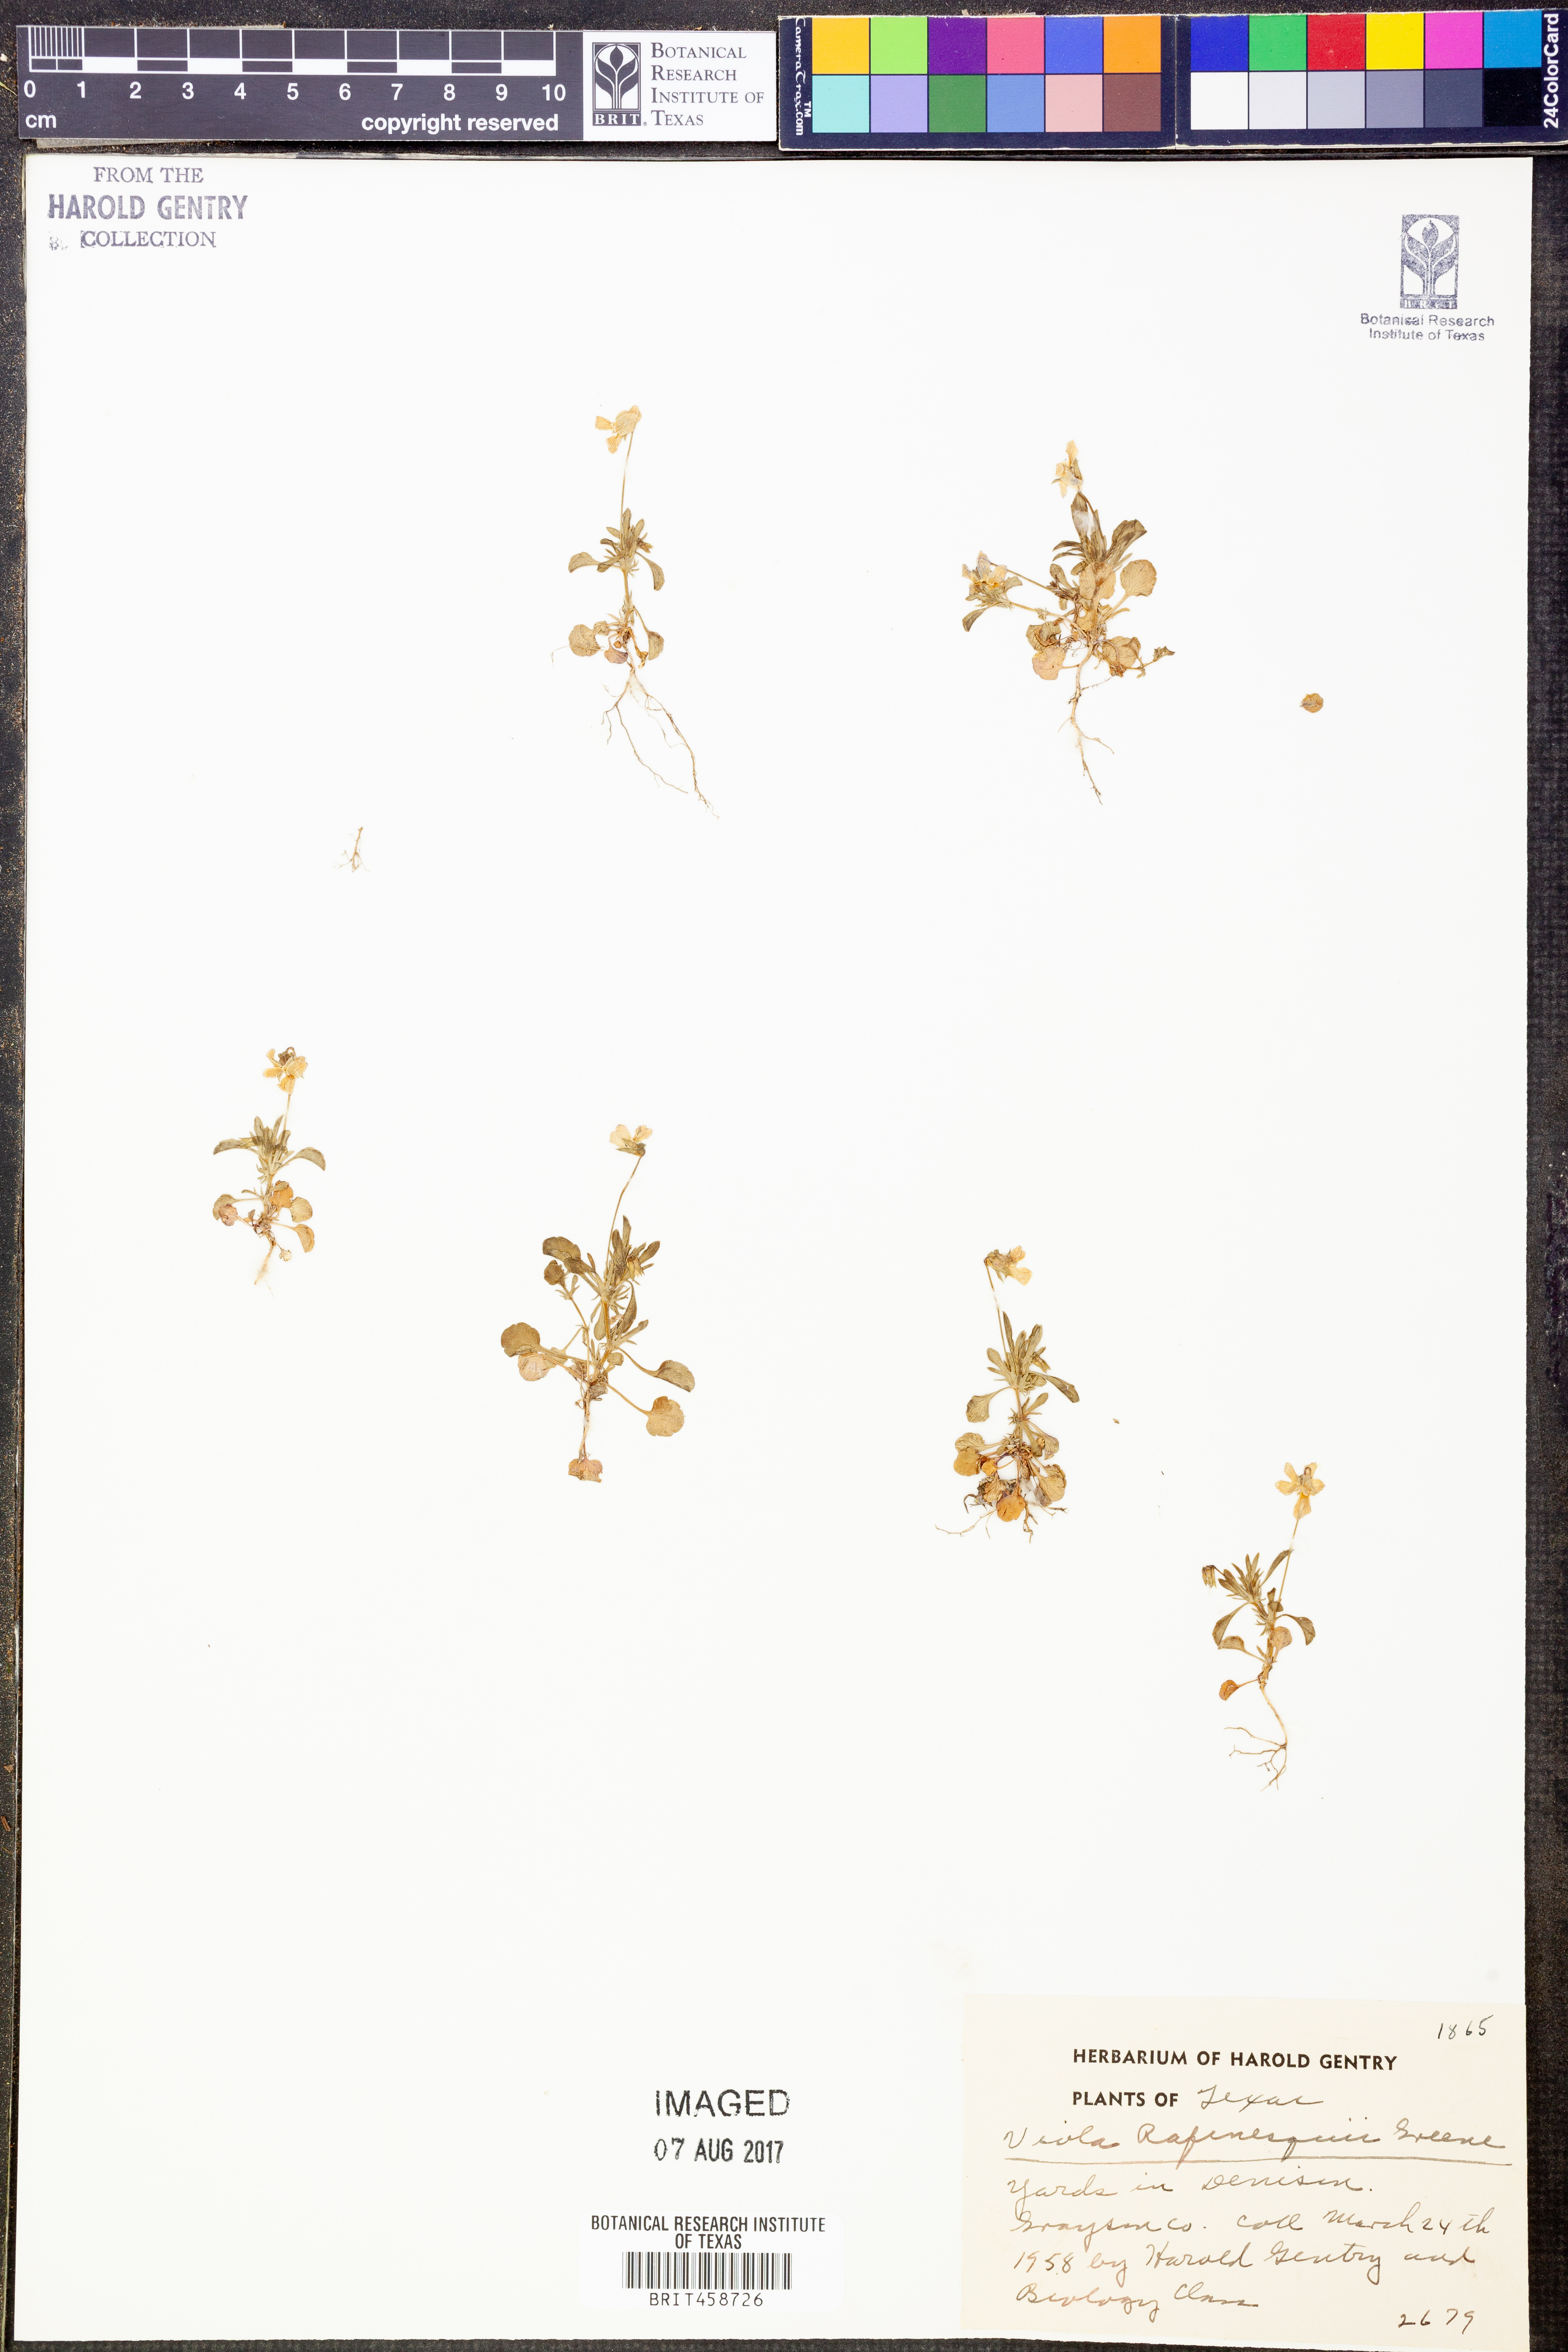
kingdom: Plantae
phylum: Tracheophyta
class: Magnoliopsida
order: Malpighiales
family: Violaceae
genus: Viola
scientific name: Viola rafinesquei
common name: American field pansy
